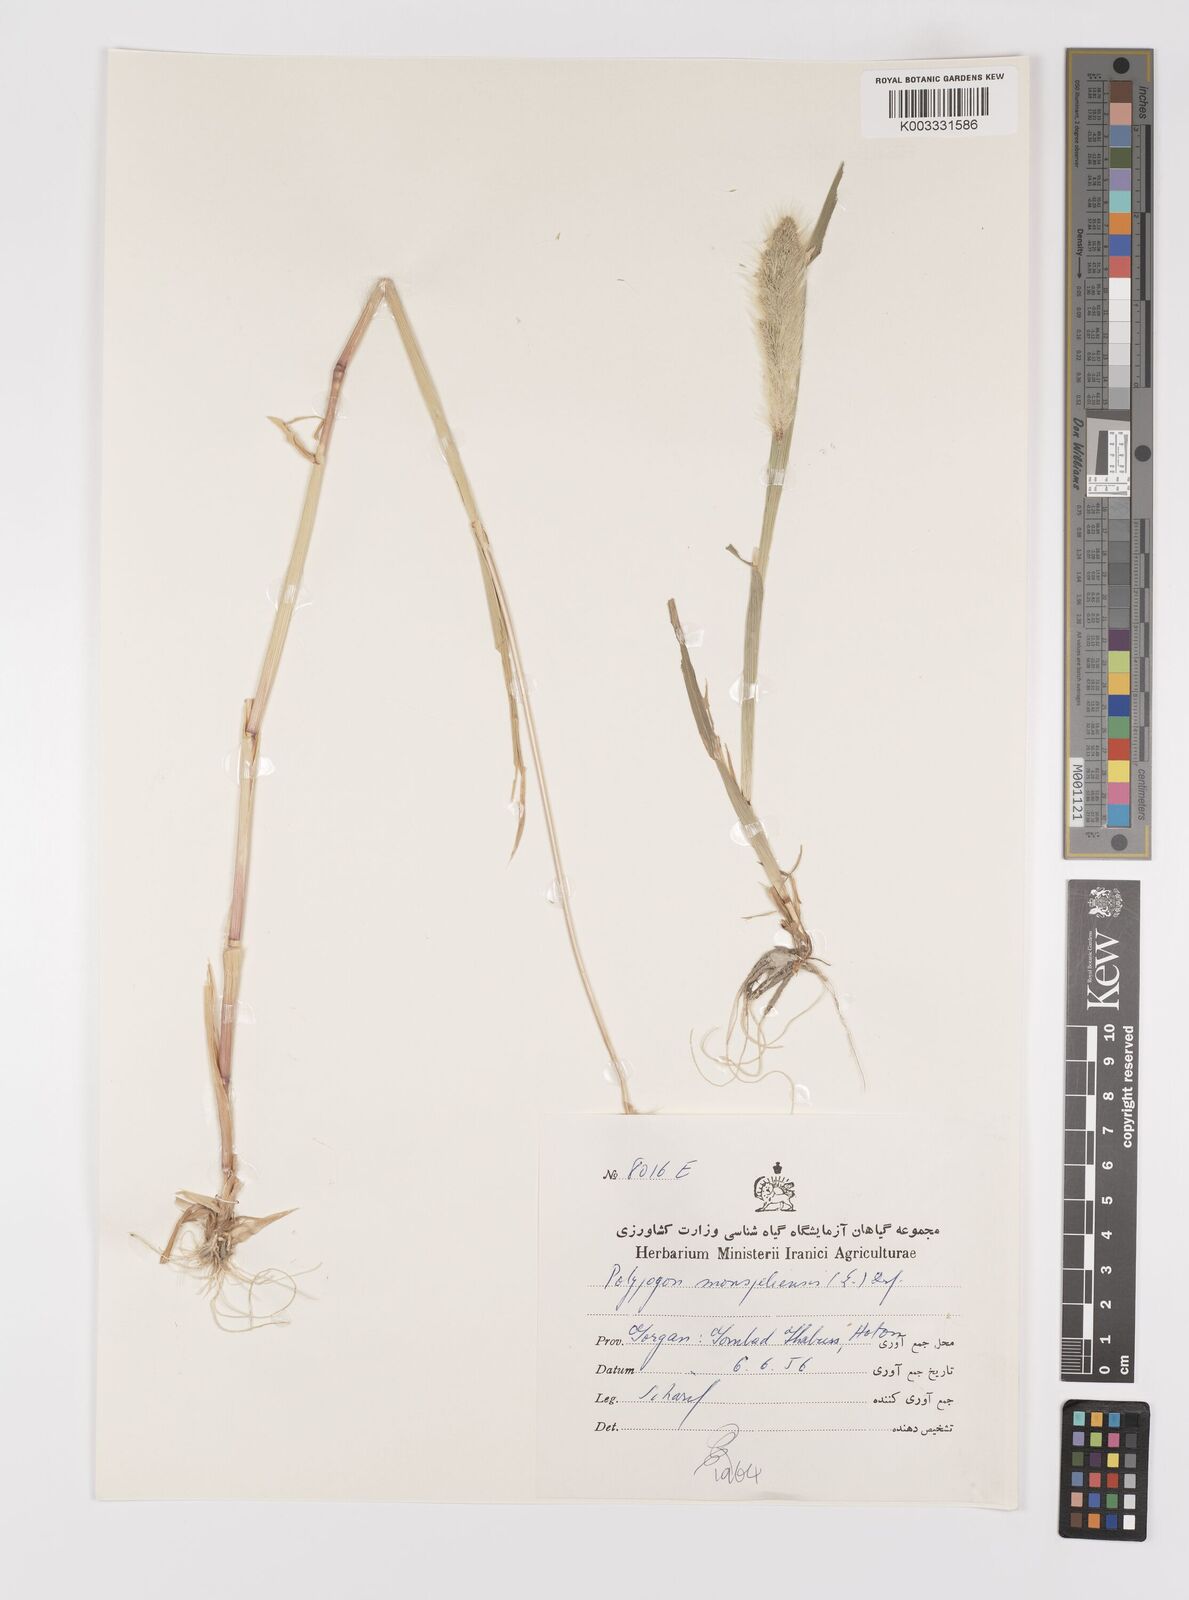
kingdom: Plantae
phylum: Tracheophyta
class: Liliopsida
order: Poales
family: Poaceae
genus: Polypogon
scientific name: Polypogon monspeliensis
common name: Annual rabbitsfoot grass
